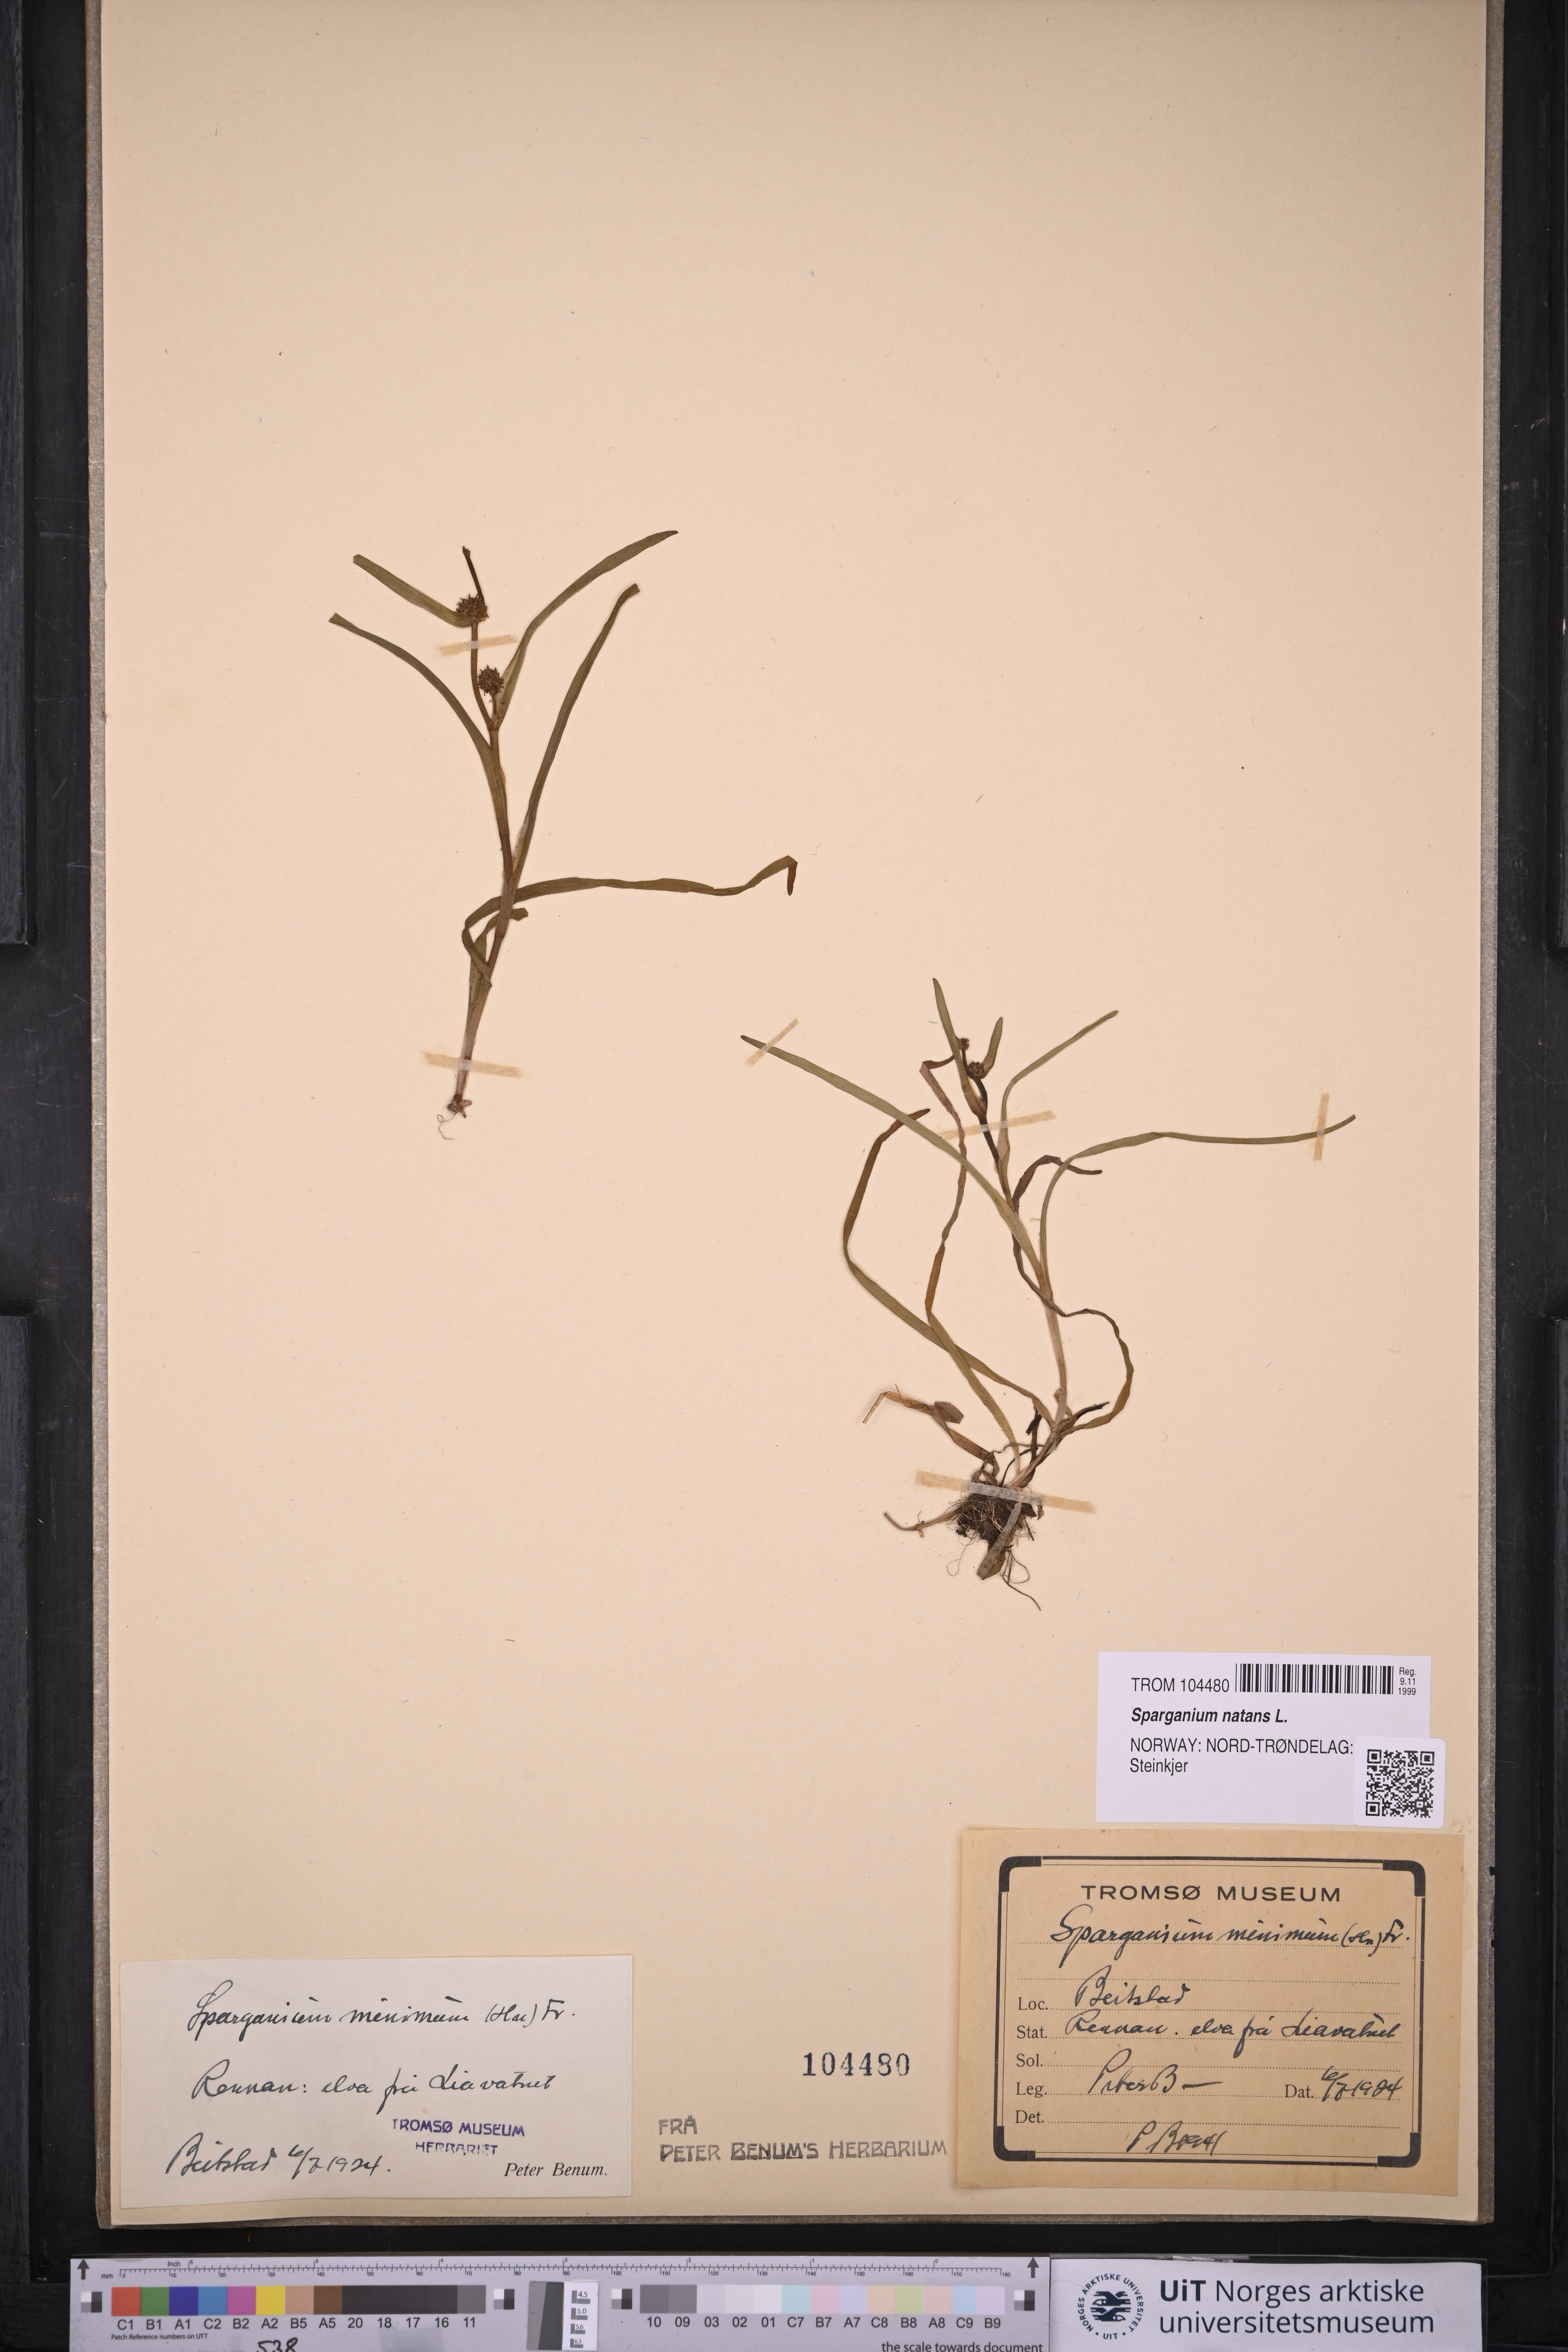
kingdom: Plantae
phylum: Tracheophyta
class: Liliopsida
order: Poales
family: Typhaceae
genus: Sparganium
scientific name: Sparganium natans
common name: Least bur-reed
